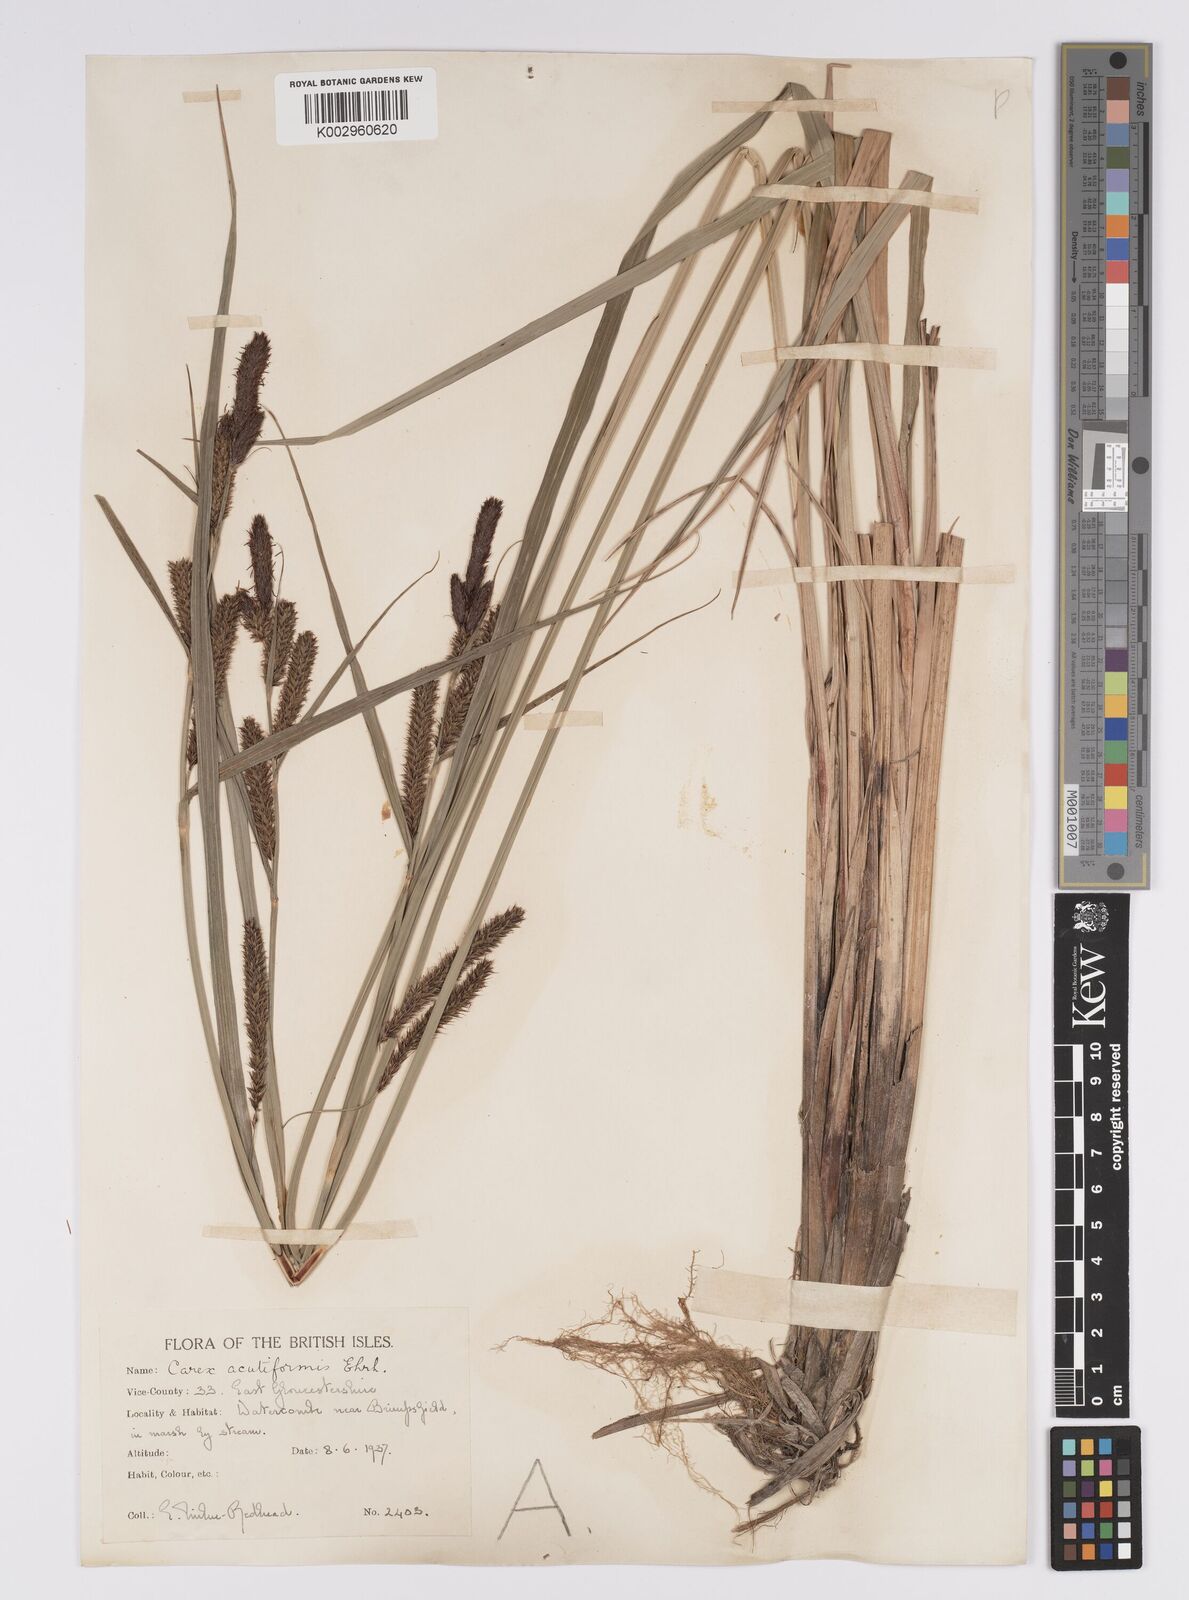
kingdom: Plantae
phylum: Tracheophyta
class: Liliopsida
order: Poales
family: Cyperaceae
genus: Carex
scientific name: Carex acutiformis
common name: Lesser pond-sedge
